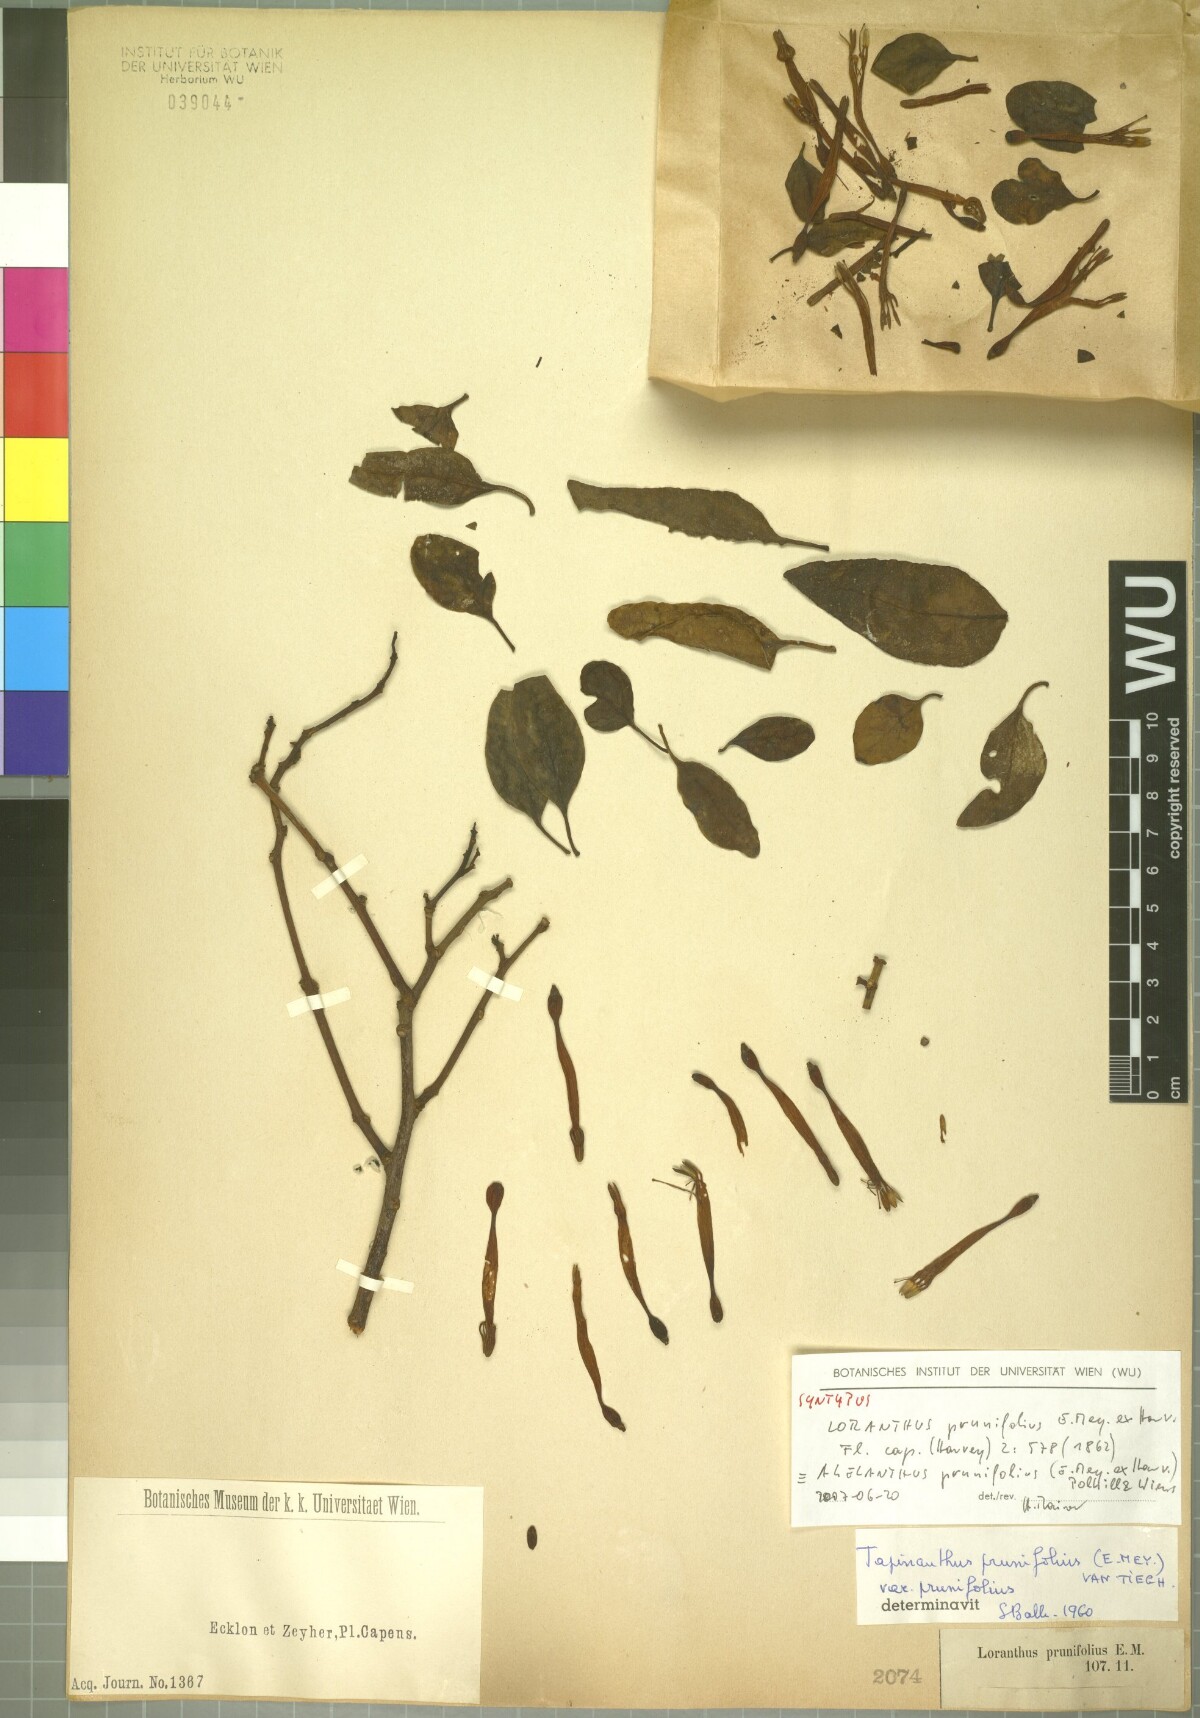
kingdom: Plantae
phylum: Tracheophyta
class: Magnoliopsida
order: Santalales
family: Loranthaceae
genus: Agelanthus
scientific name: Agelanthus prunifolius
